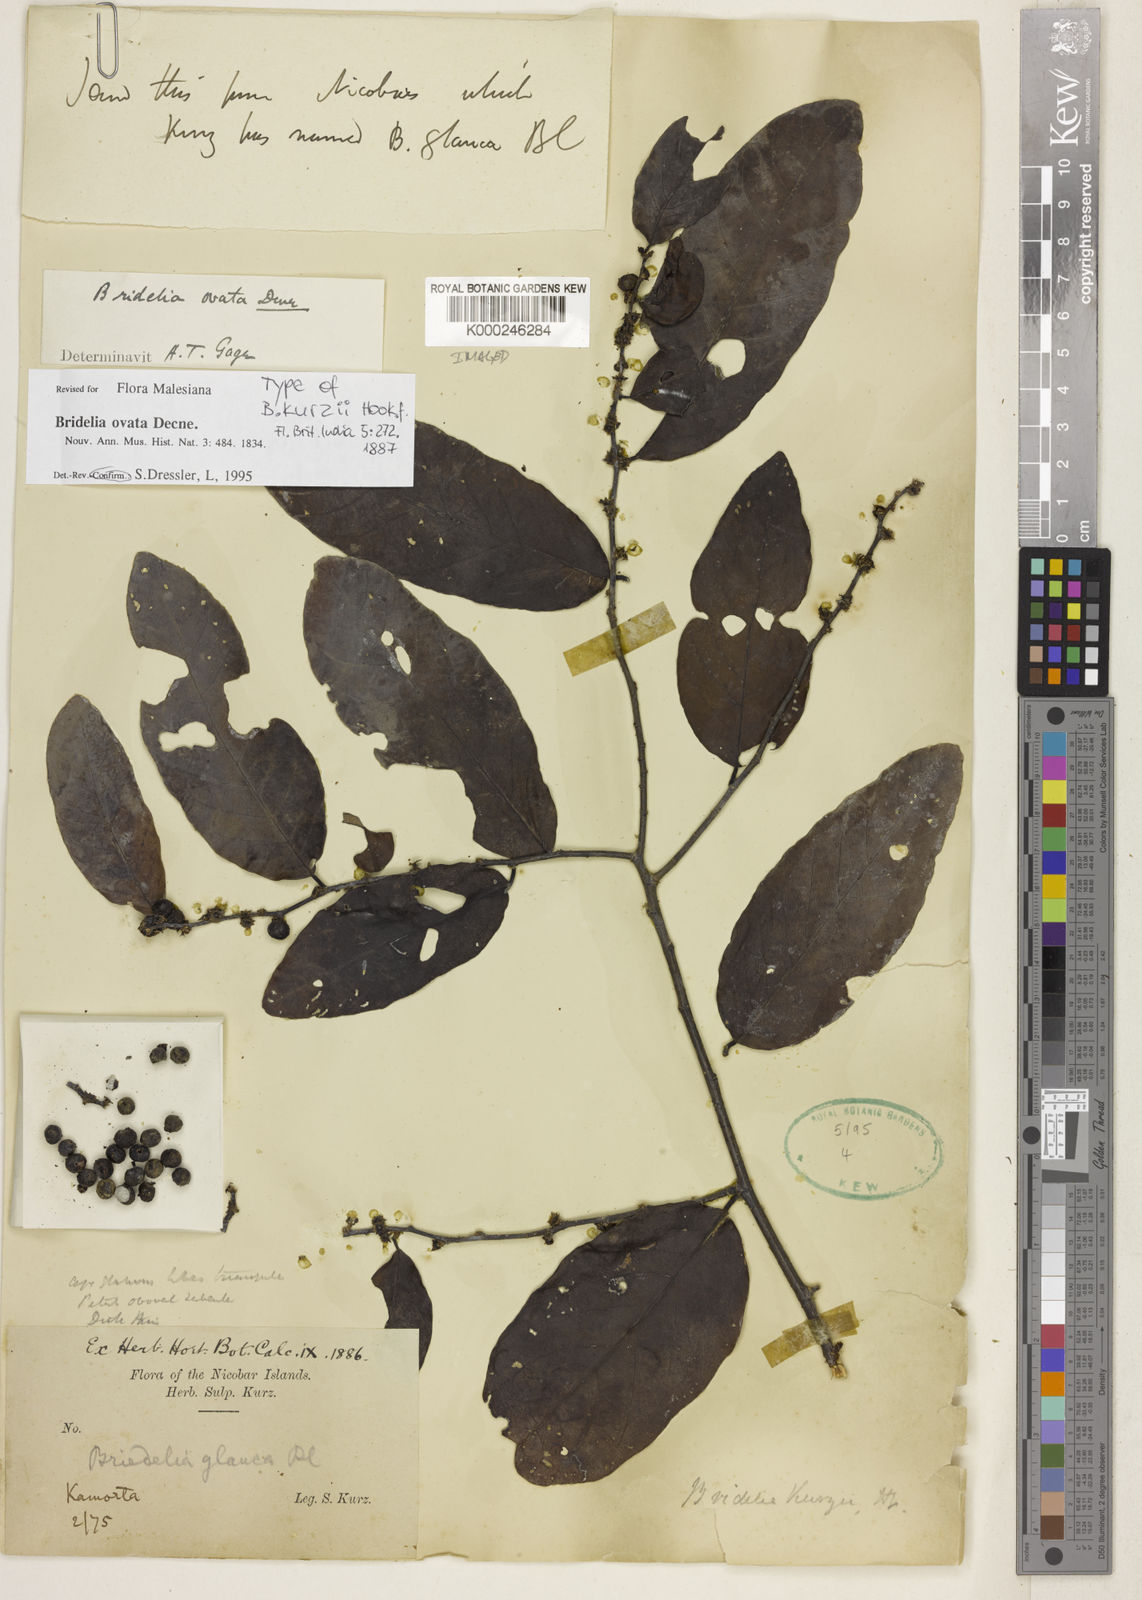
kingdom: Plantae
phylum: Tracheophyta
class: Magnoliopsida
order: Malpighiales
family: Phyllanthaceae
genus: Bridelia
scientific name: Bridelia ovata
